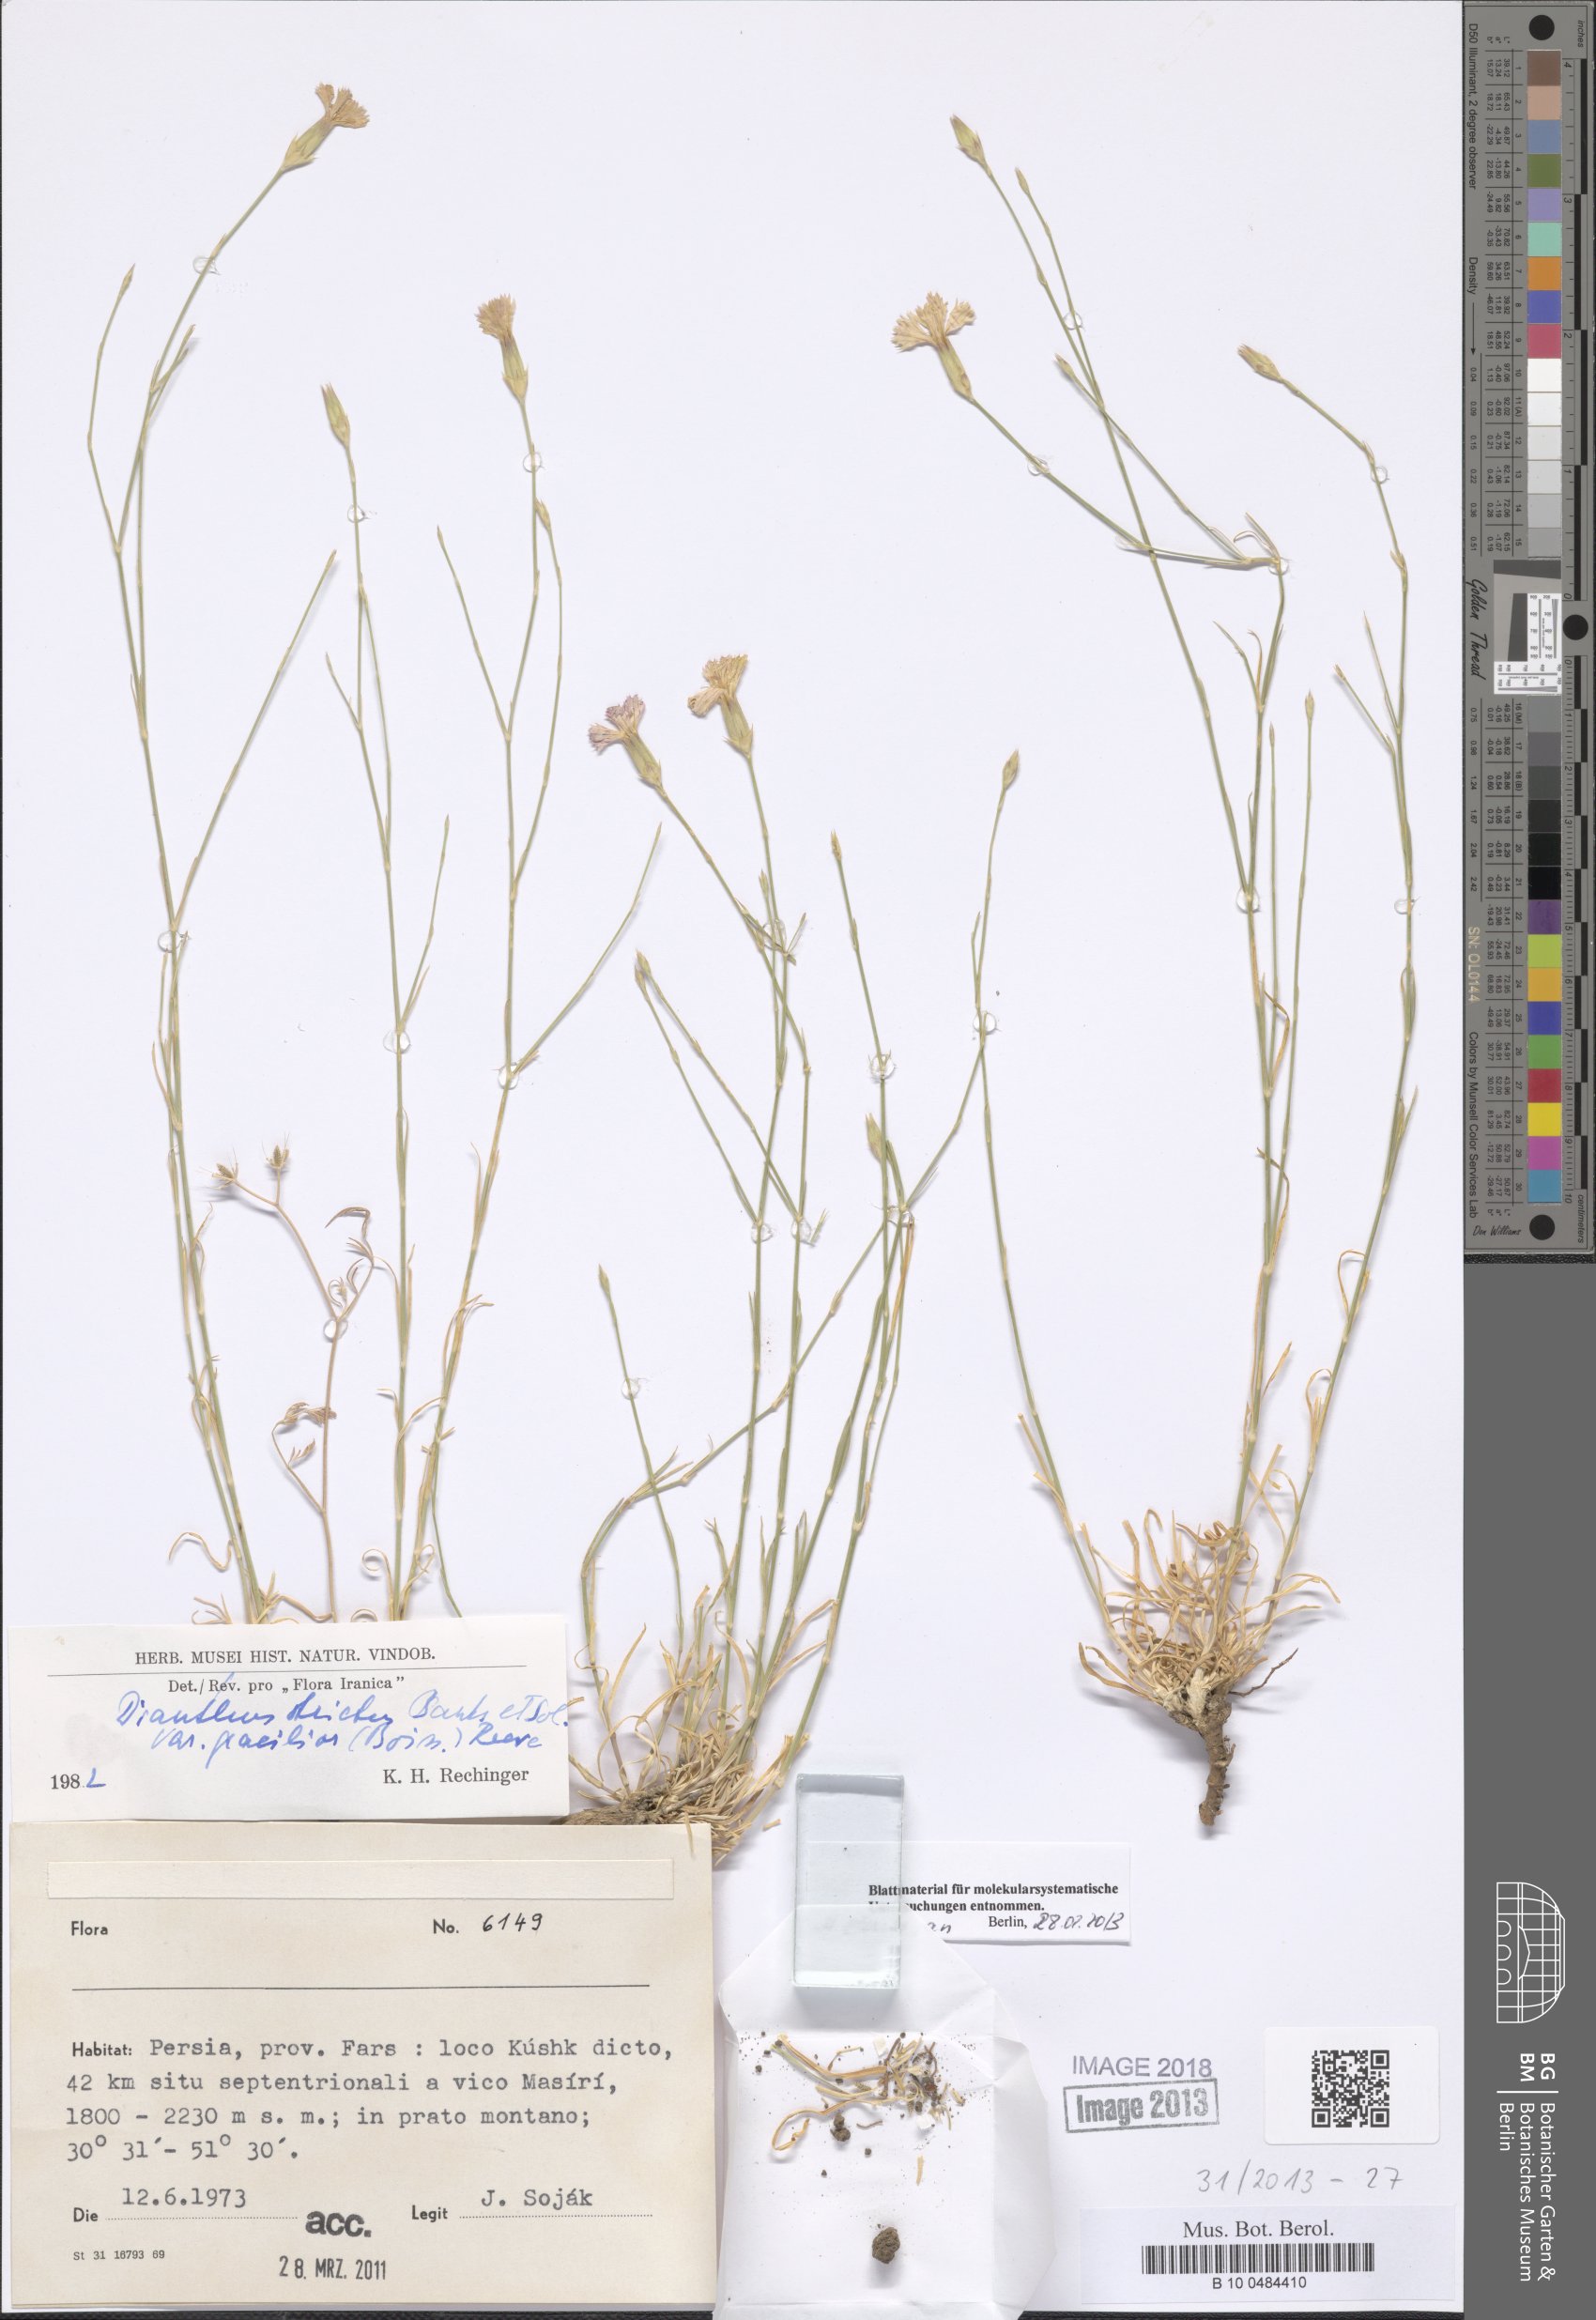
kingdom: Plantae
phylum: Tracheophyta
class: Magnoliopsida
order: Caryophyllales
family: Caryophyllaceae
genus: Dianthus
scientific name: Dianthus strictus
